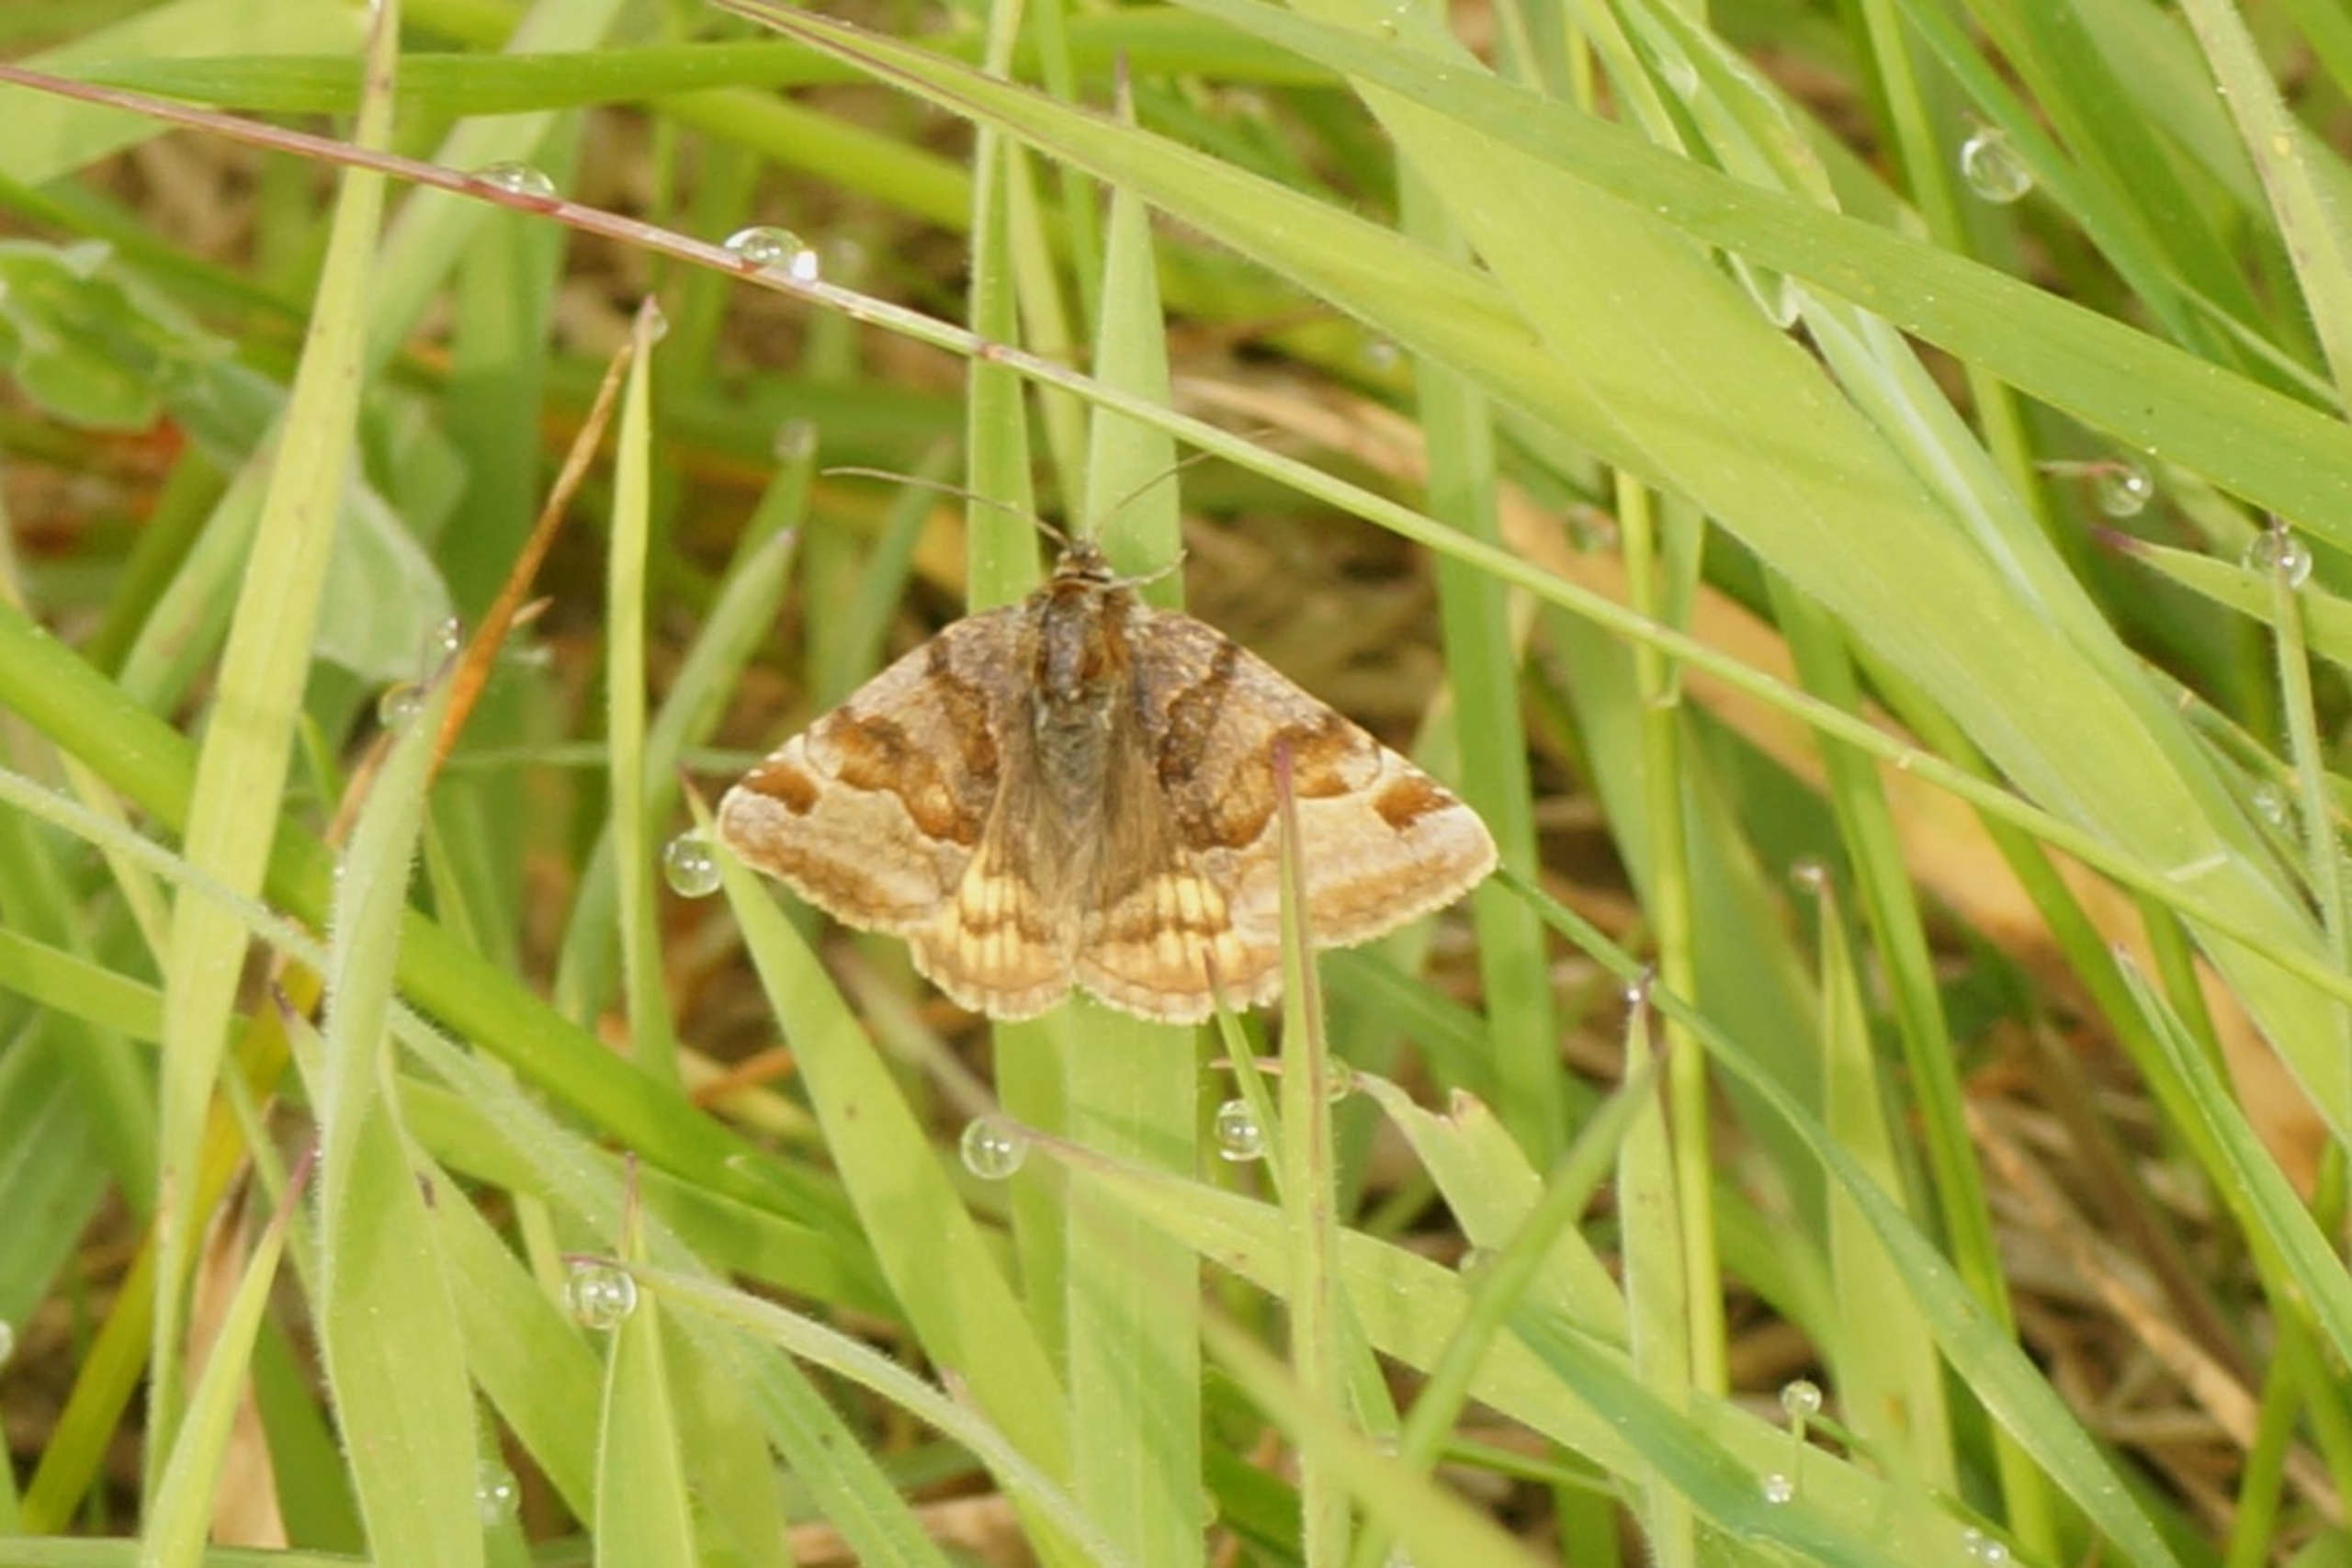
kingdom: Animalia
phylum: Arthropoda
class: Insecta
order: Lepidoptera
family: Erebidae
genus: Euclidia
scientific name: Euclidia glyphica
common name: Brun kløverugle
